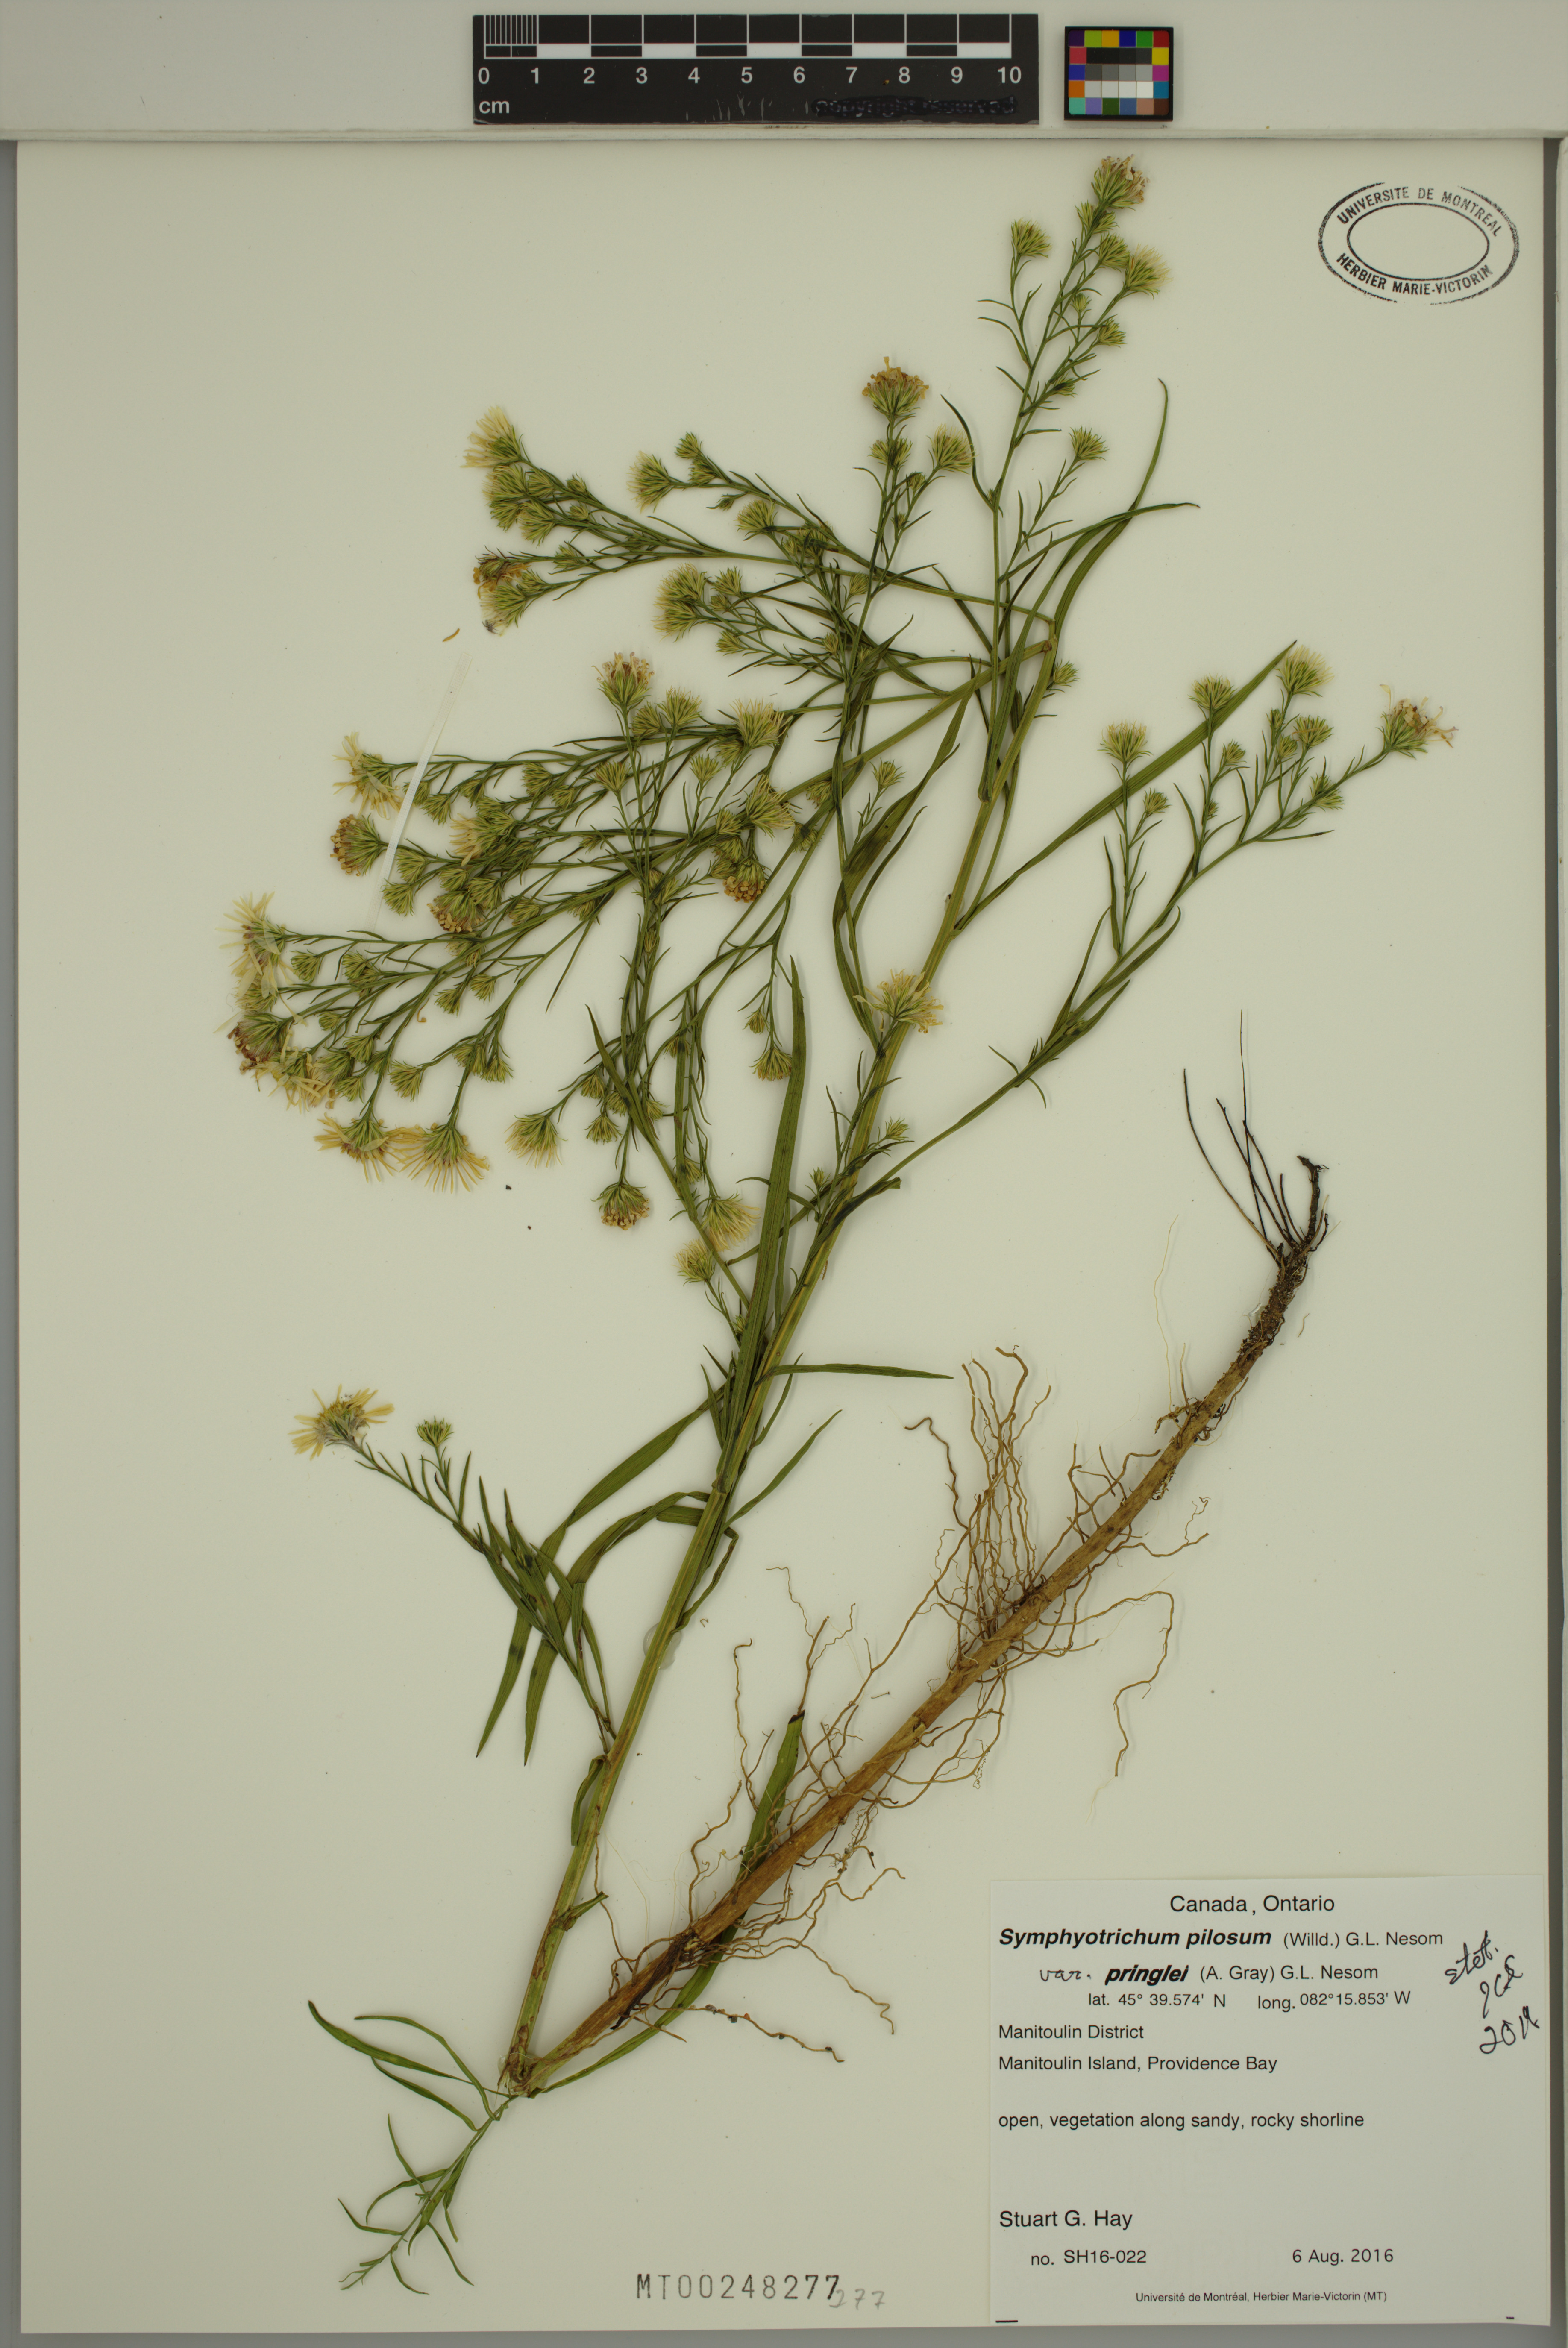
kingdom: Plantae
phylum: Tracheophyta
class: Magnoliopsida
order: Asterales
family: Asteraceae
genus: Symphyotrichum
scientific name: Symphyotrichum pilosum
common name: Awl aster
